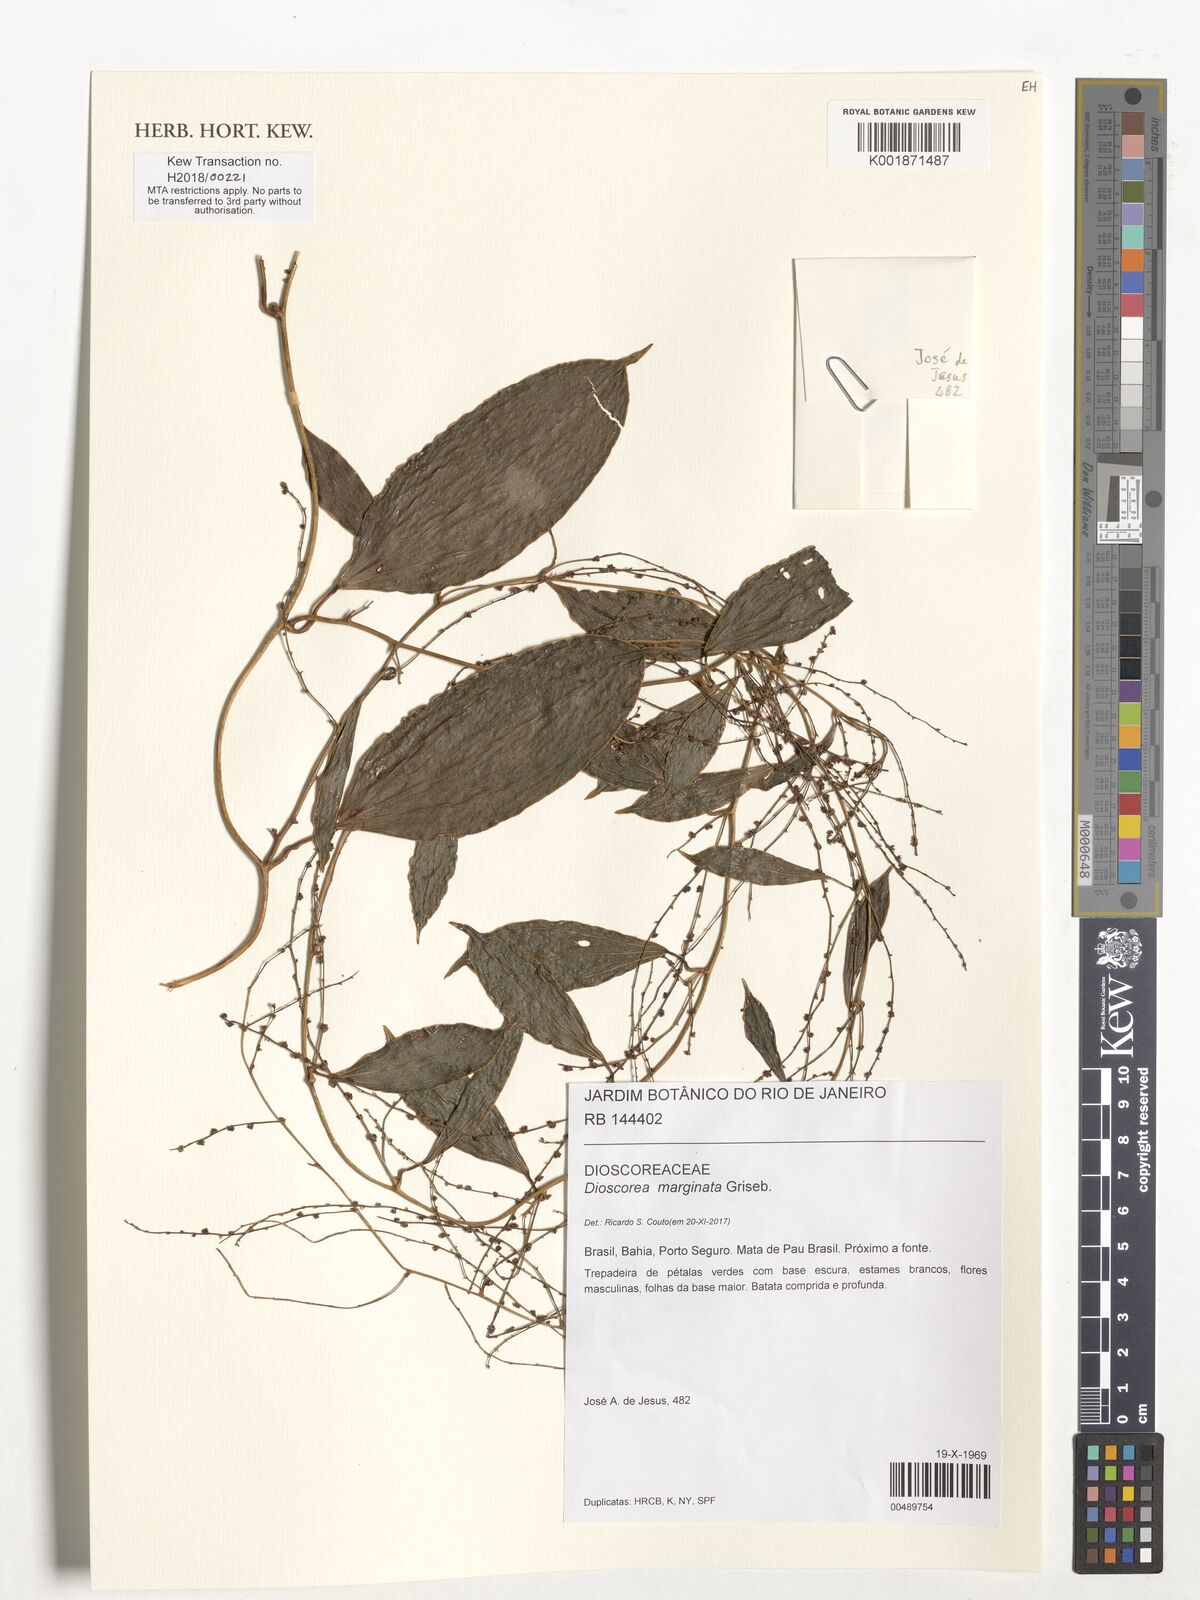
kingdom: Plantae
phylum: Tracheophyta
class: Liliopsida
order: Dioscoreales
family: Dioscoreaceae
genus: Dioscorea
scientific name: Dioscorea marginata
